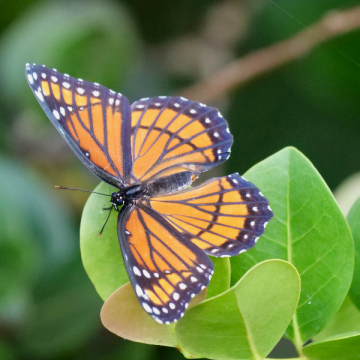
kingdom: Animalia
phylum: Arthropoda
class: Insecta
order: Lepidoptera
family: Nymphalidae
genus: Limenitis
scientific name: Limenitis archippus
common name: Viceroy
